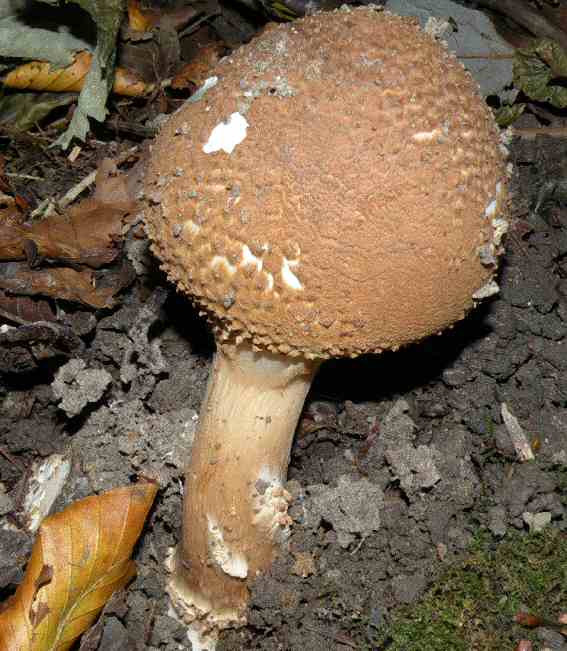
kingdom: Fungi
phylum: Basidiomycota
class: Agaricomycetes
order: Agaricales
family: Agaricaceae
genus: Echinoderma
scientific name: Echinoderma asperum
